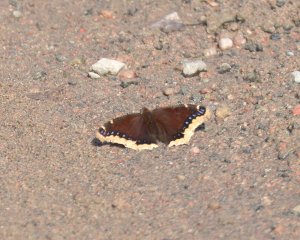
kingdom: Animalia
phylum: Arthropoda
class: Insecta
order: Lepidoptera
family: Nymphalidae
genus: Nymphalis
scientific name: Nymphalis antiopa
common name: Mourning Cloak
